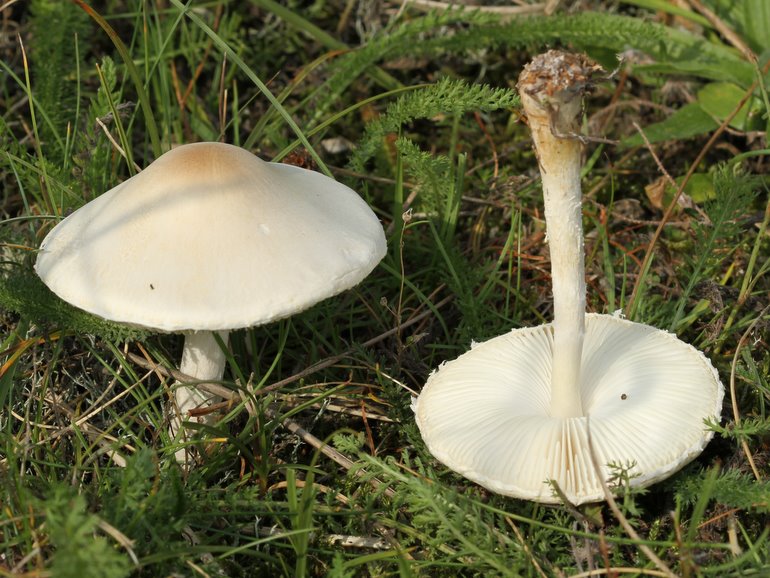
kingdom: Fungi
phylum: Basidiomycota
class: Agaricomycetes
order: Agaricales
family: Agaricaceae
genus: Lepiota
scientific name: Lepiota erminea
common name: hvid parasolhat
